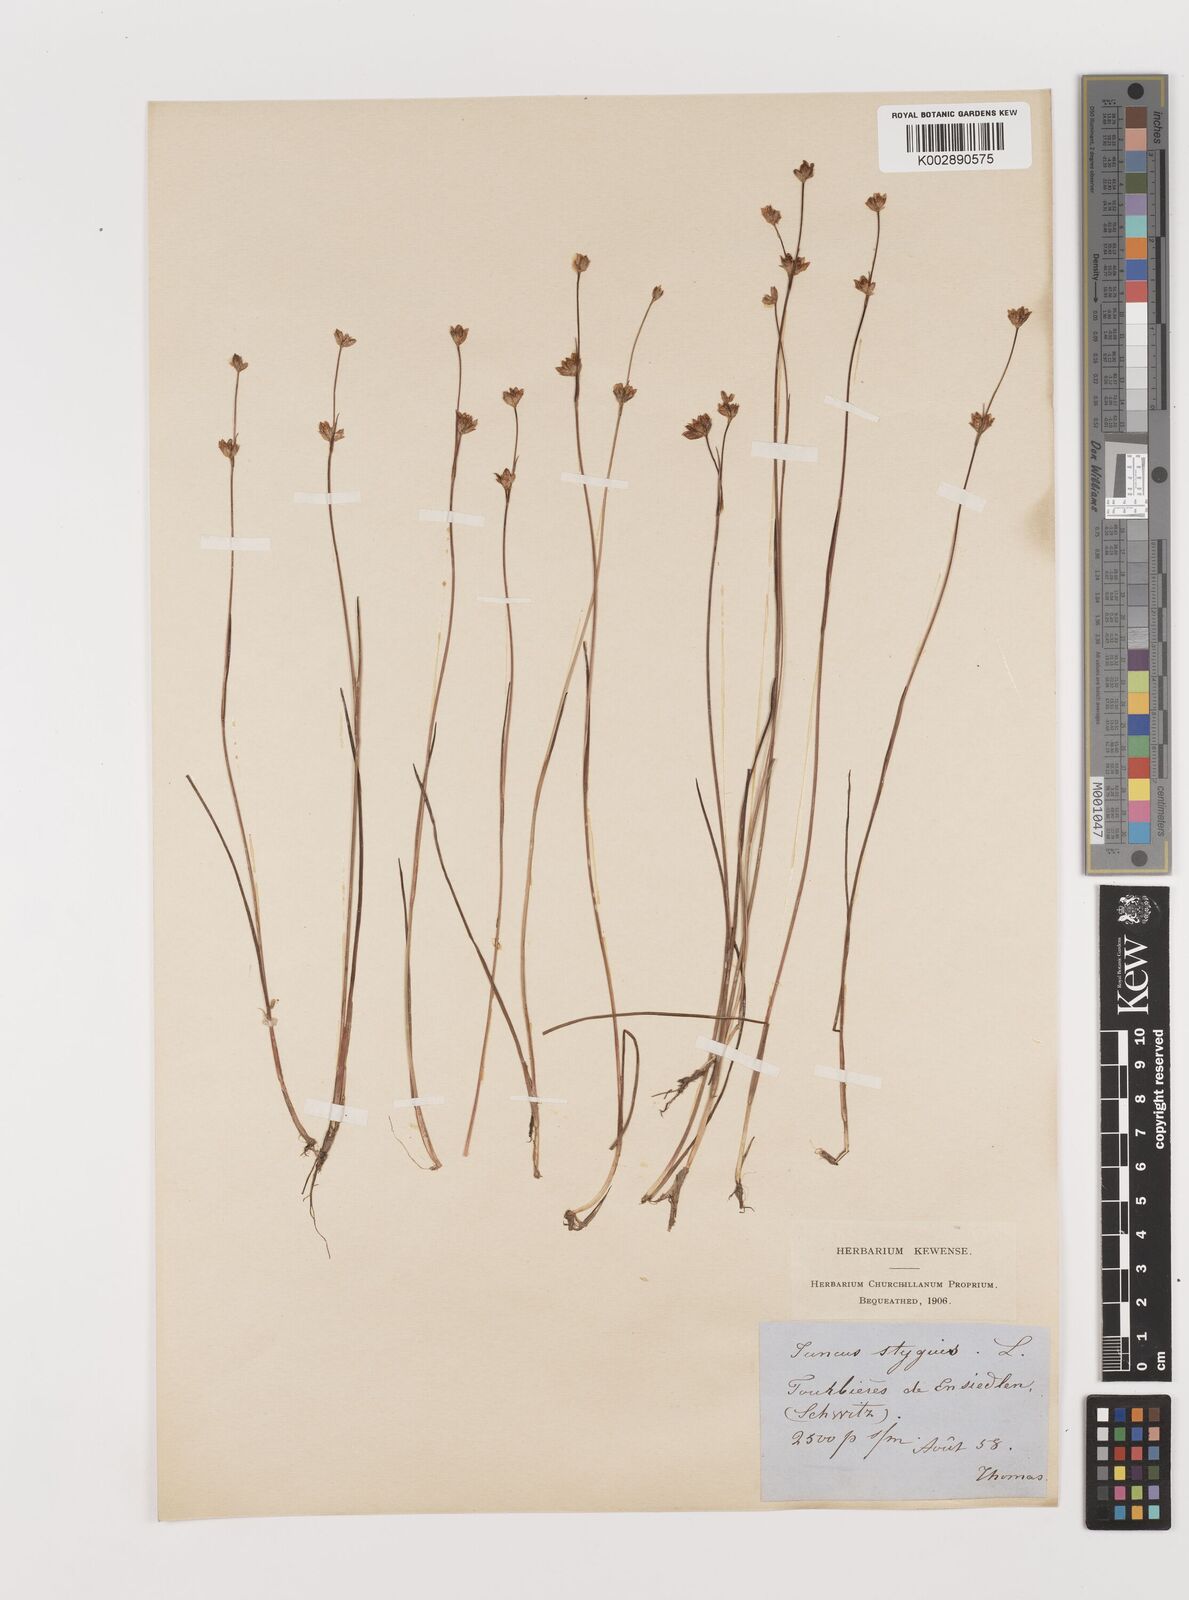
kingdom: Plantae
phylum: Tracheophyta
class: Liliopsida
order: Poales
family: Juncaceae
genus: Juncus
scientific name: Juncus stygius
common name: Bog rush
